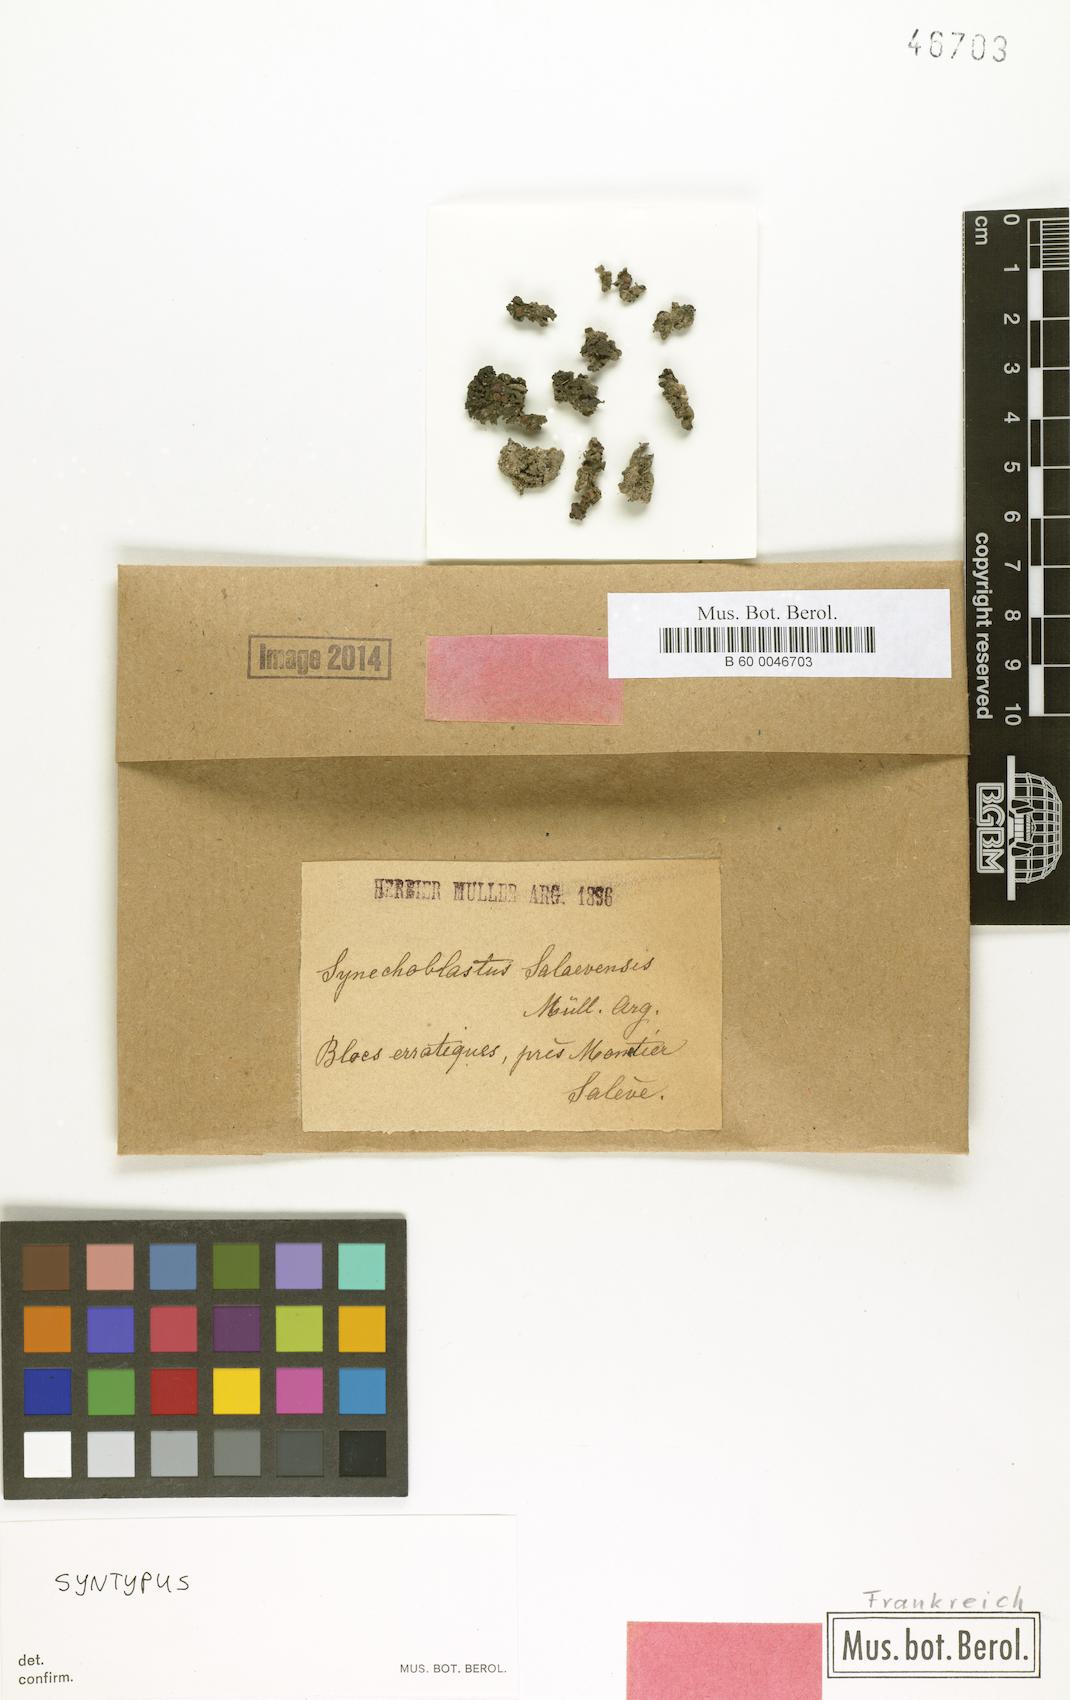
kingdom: Fungi
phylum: Ascomycota
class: Lecanoromycetes
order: Peltigerales
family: Collemataceae
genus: Enchylium
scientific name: Enchylium polycarpon
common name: Shaly jelly lichen
